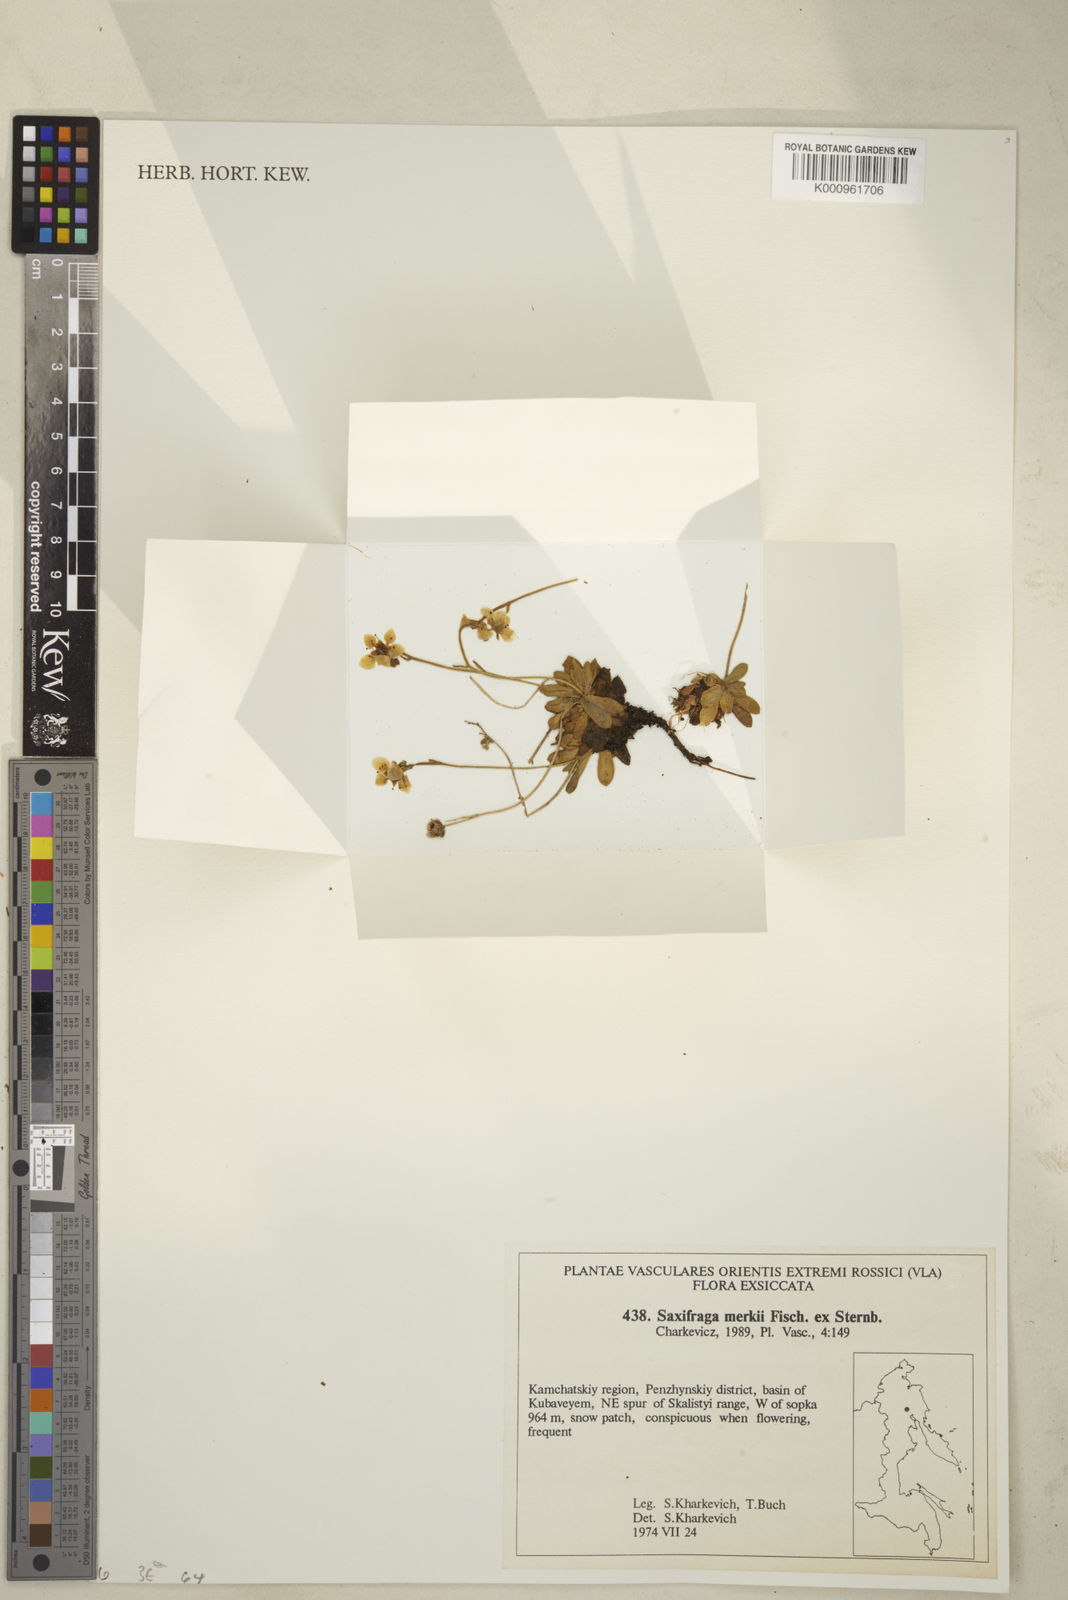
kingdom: Plantae
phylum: Tracheophyta
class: Magnoliopsida
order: Saxifragales
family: Saxifragaceae
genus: Micranthes
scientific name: Micranthes merkii
